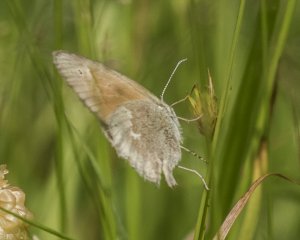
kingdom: Animalia
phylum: Arthropoda
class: Insecta
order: Lepidoptera
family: Nymphalidae
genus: Coenonympha
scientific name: Coenonympha tullia
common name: Large Heath
